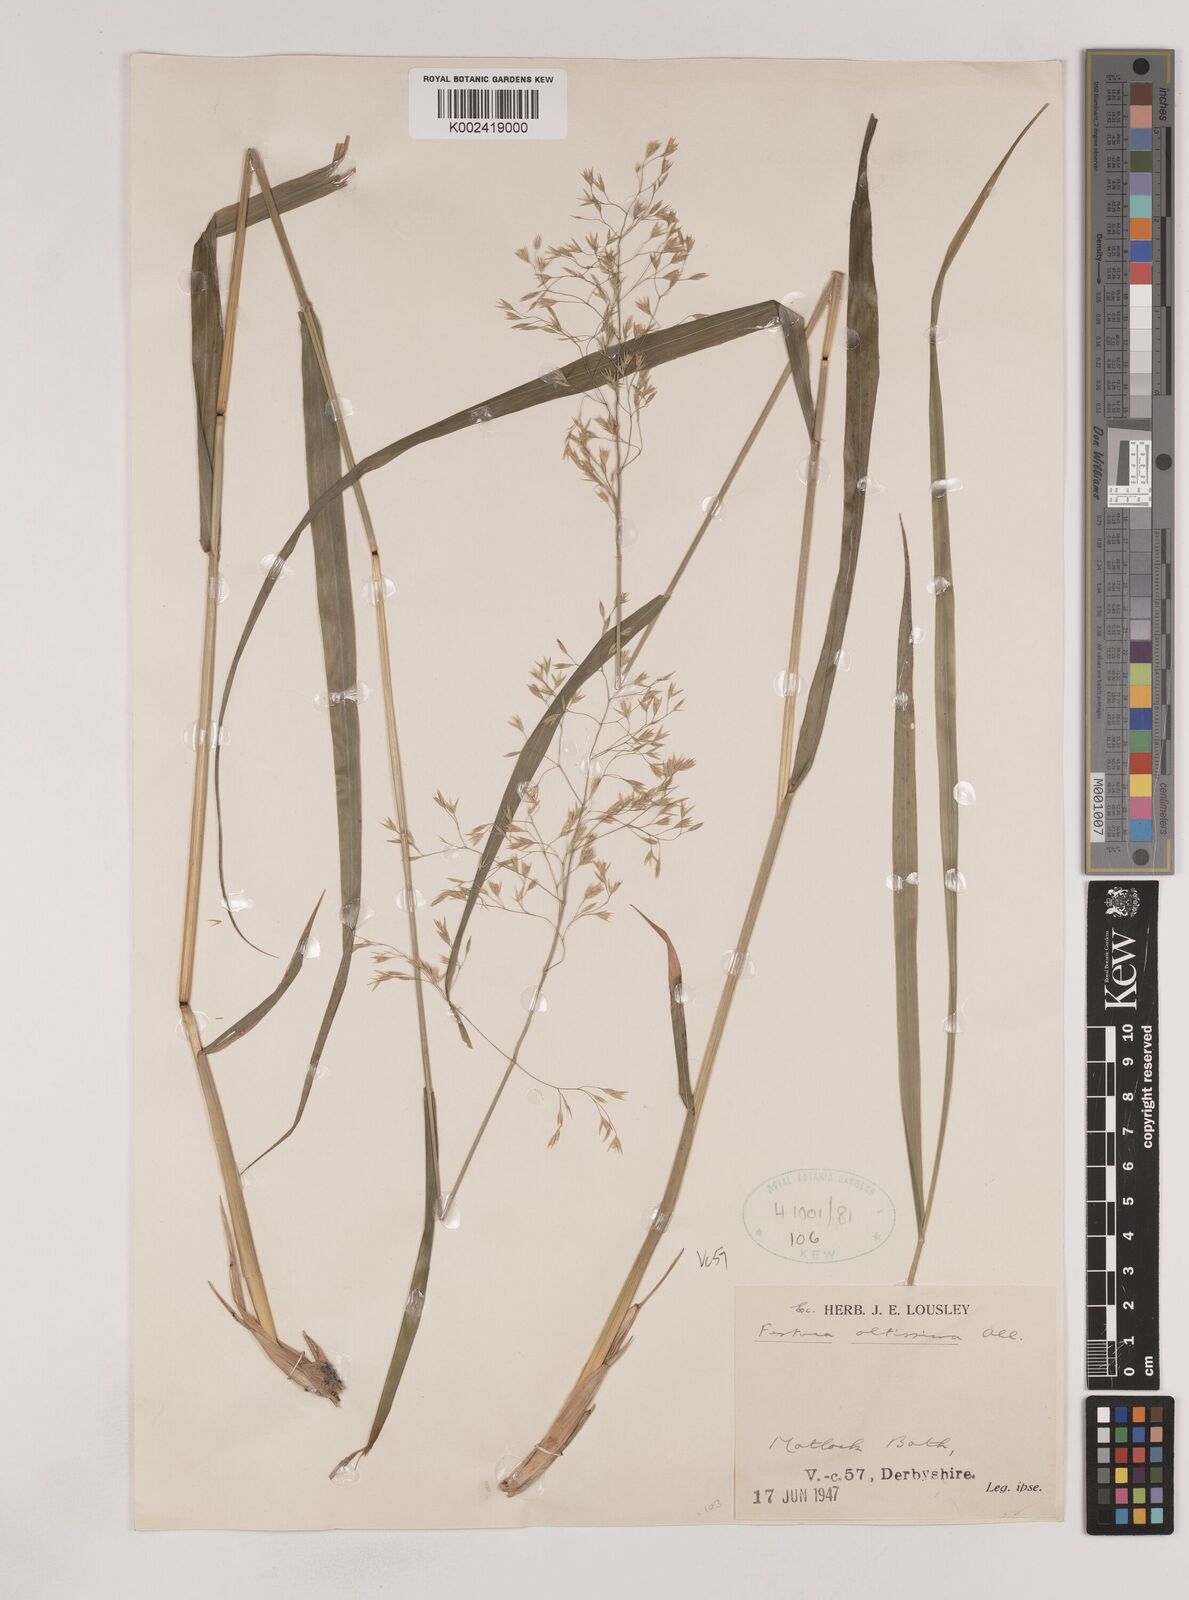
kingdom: Plantae
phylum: Tracheophyta
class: Liliopsida
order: Poales
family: Poaceae
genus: Festuca
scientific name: Festuca drymeja
